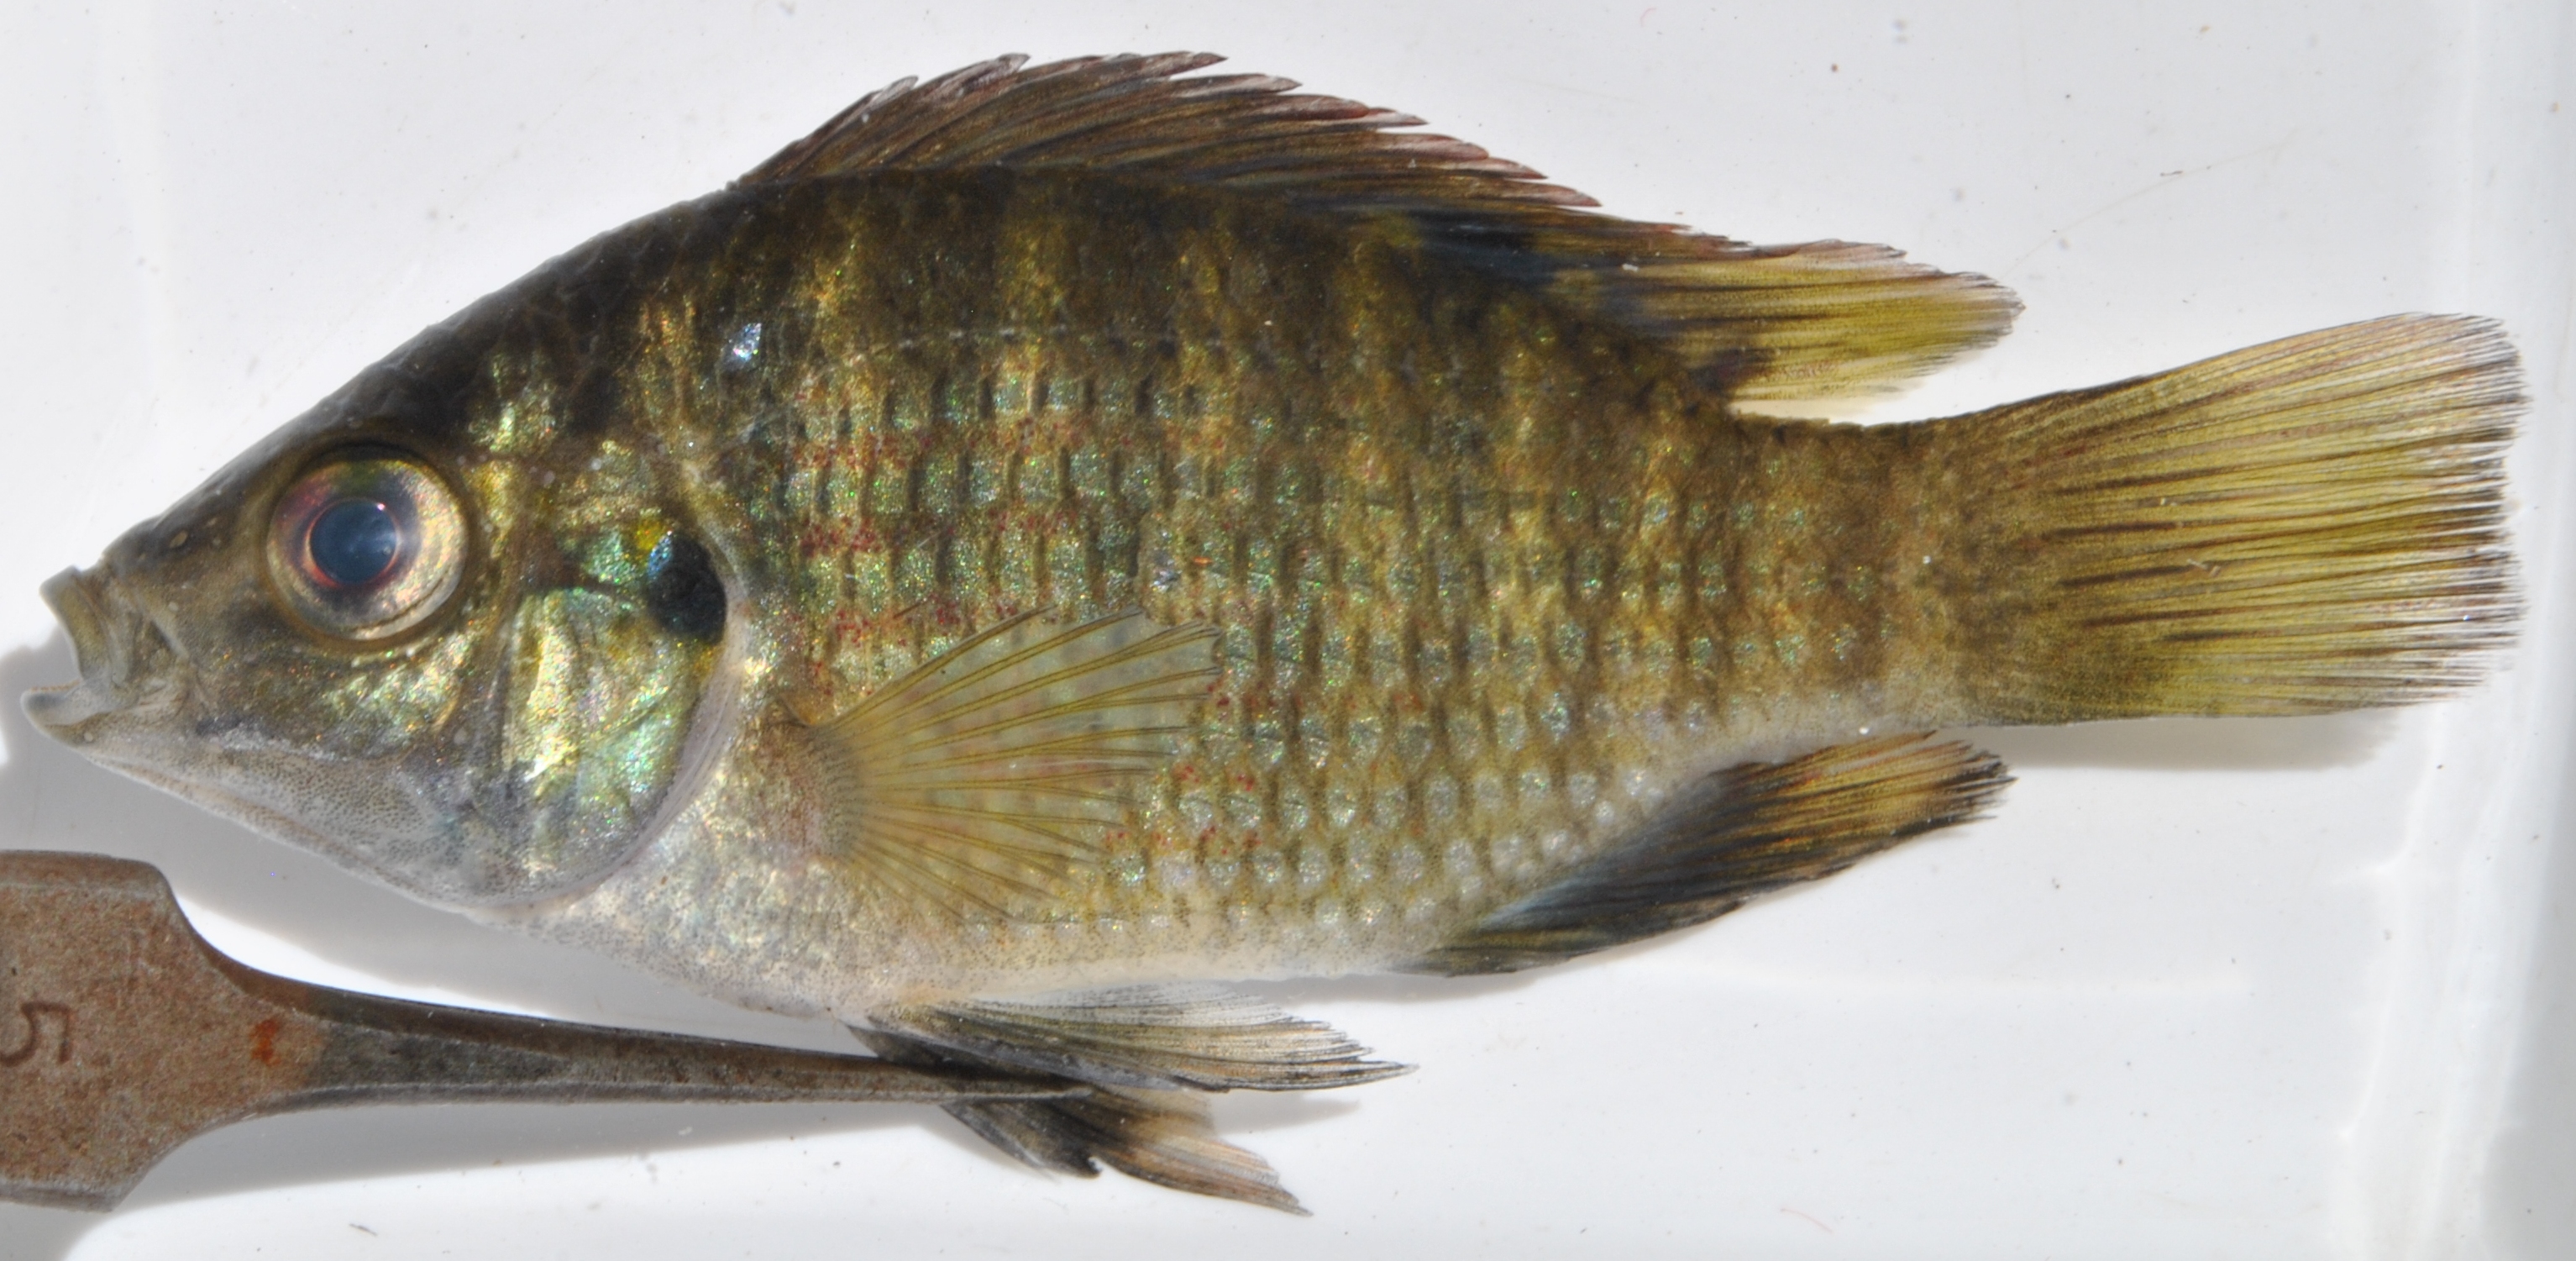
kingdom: Animalia
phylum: Chordata
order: Perciformes
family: Cichlidae
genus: Tilapia
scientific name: Tilapia sparrmanii
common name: Banded tilapia
